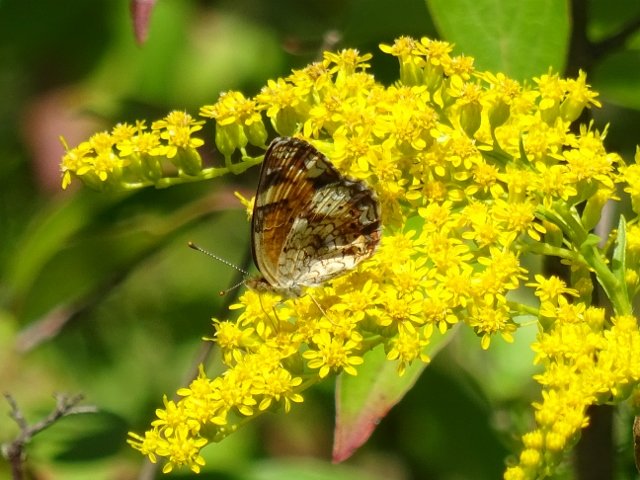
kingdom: Animalia
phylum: Arthropoda
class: Insecta
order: Lepidoptera
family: Nymphalidae
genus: Phyciodes
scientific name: Phyciodes tharos
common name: Northern Crescent
